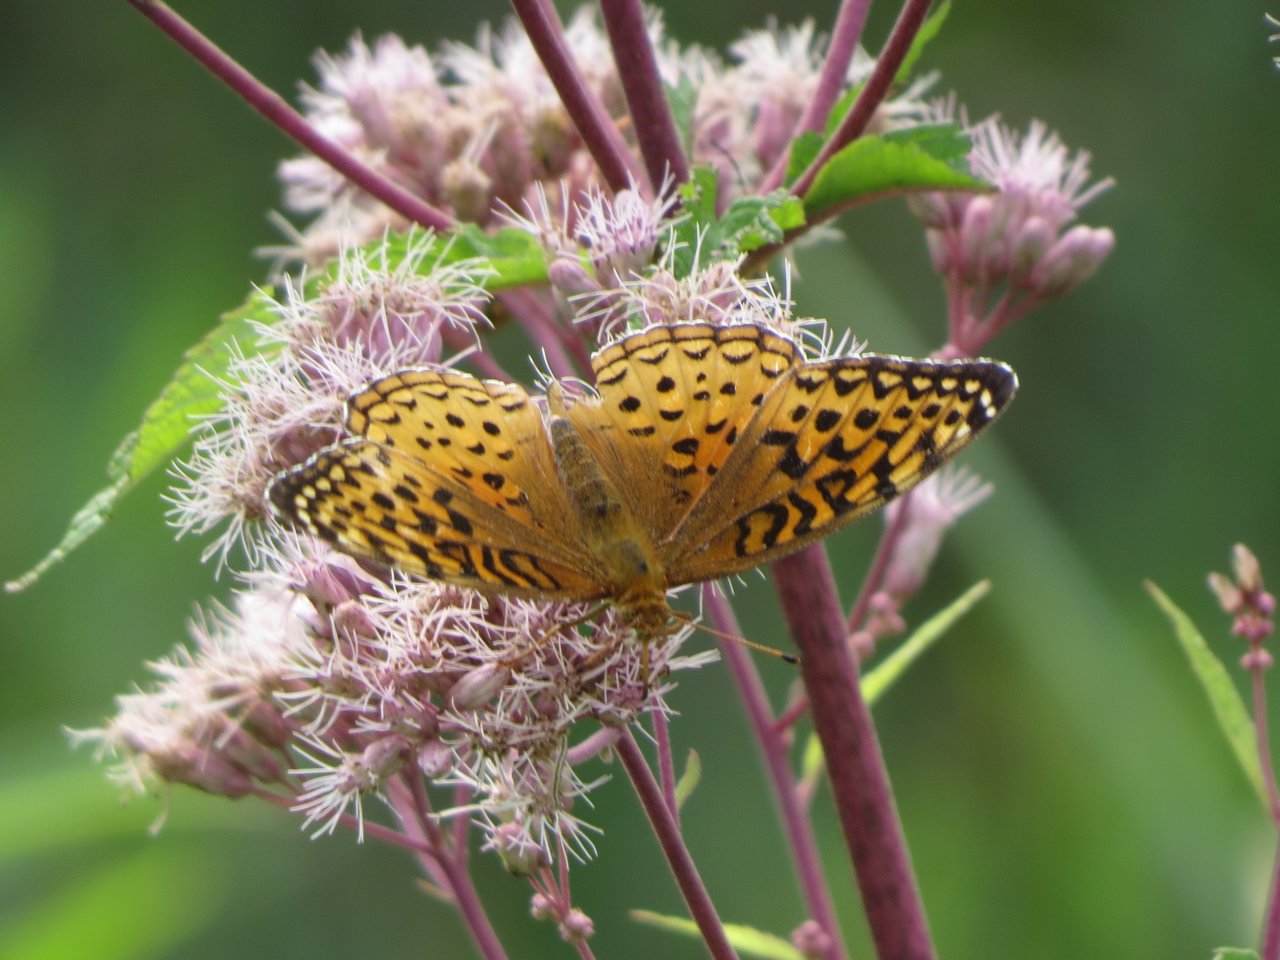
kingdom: Animalia
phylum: Arthropoda
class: Insecta
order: Lepidoptera
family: Nymphalidae
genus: Speyeria
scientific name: Speyeria
